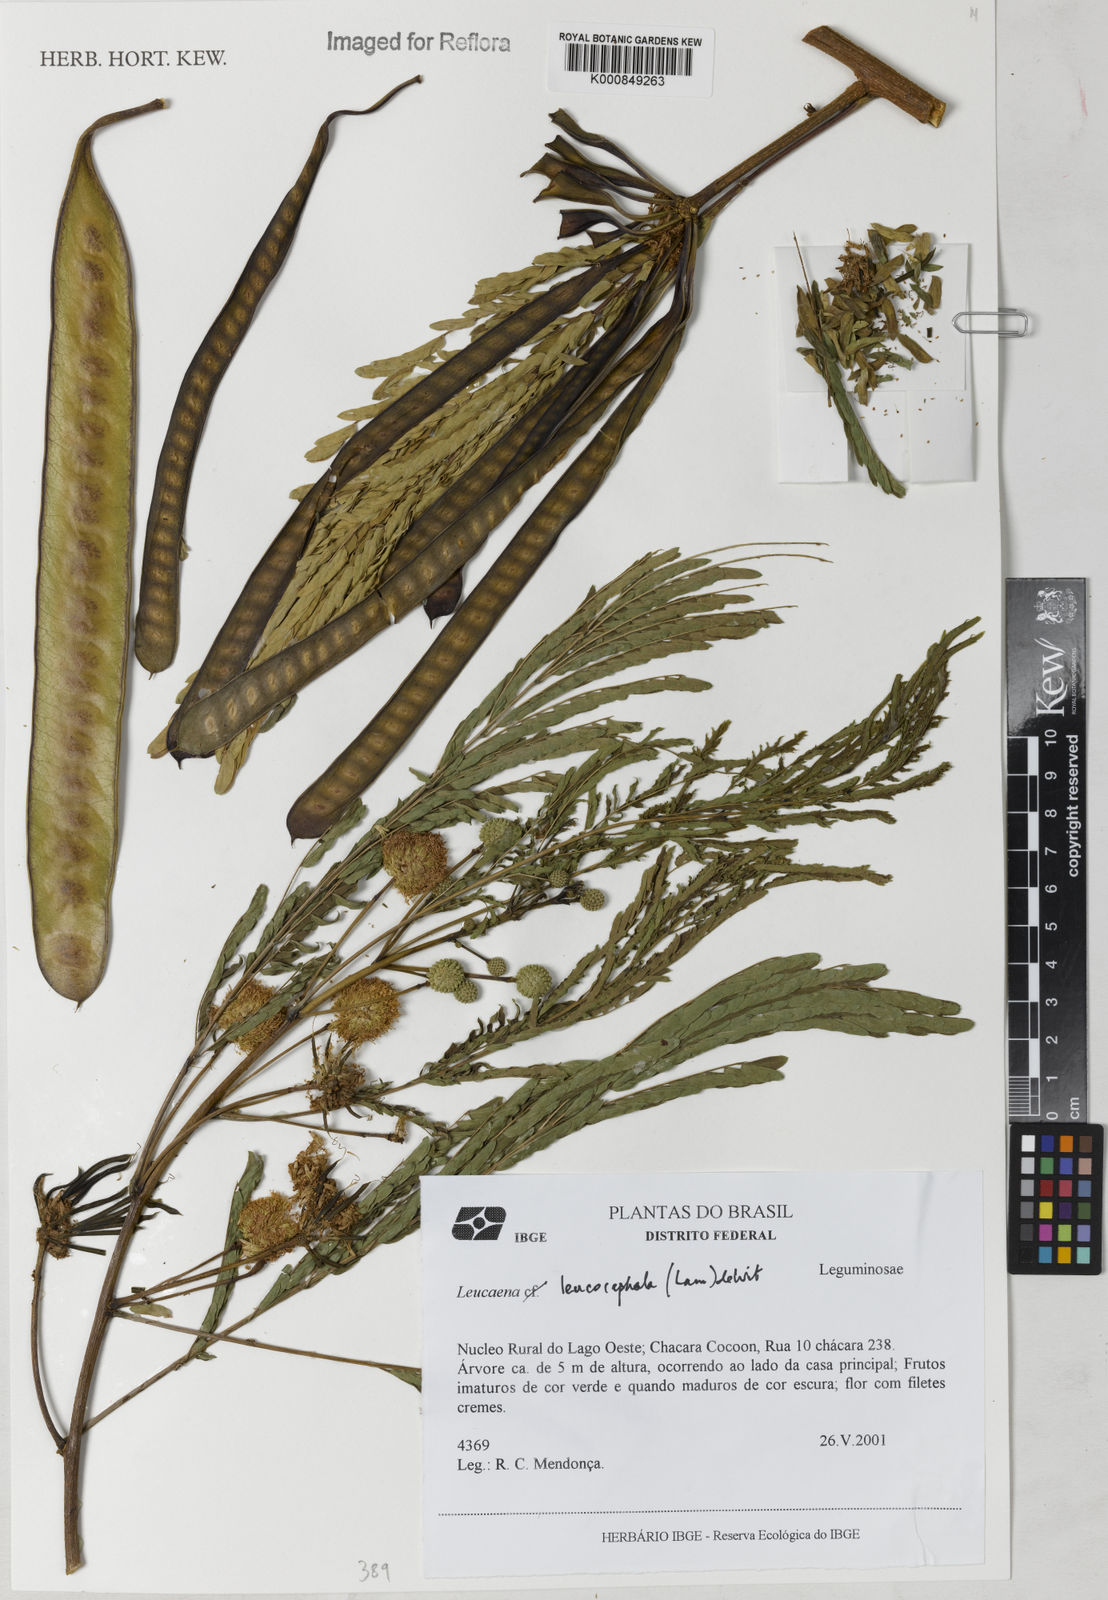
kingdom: Plantae
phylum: Tracheophyta
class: Magnoliopsida
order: Fabales
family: Fabaceae
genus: Leucaena
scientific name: Leucaena leucocephala
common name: White leadtree
